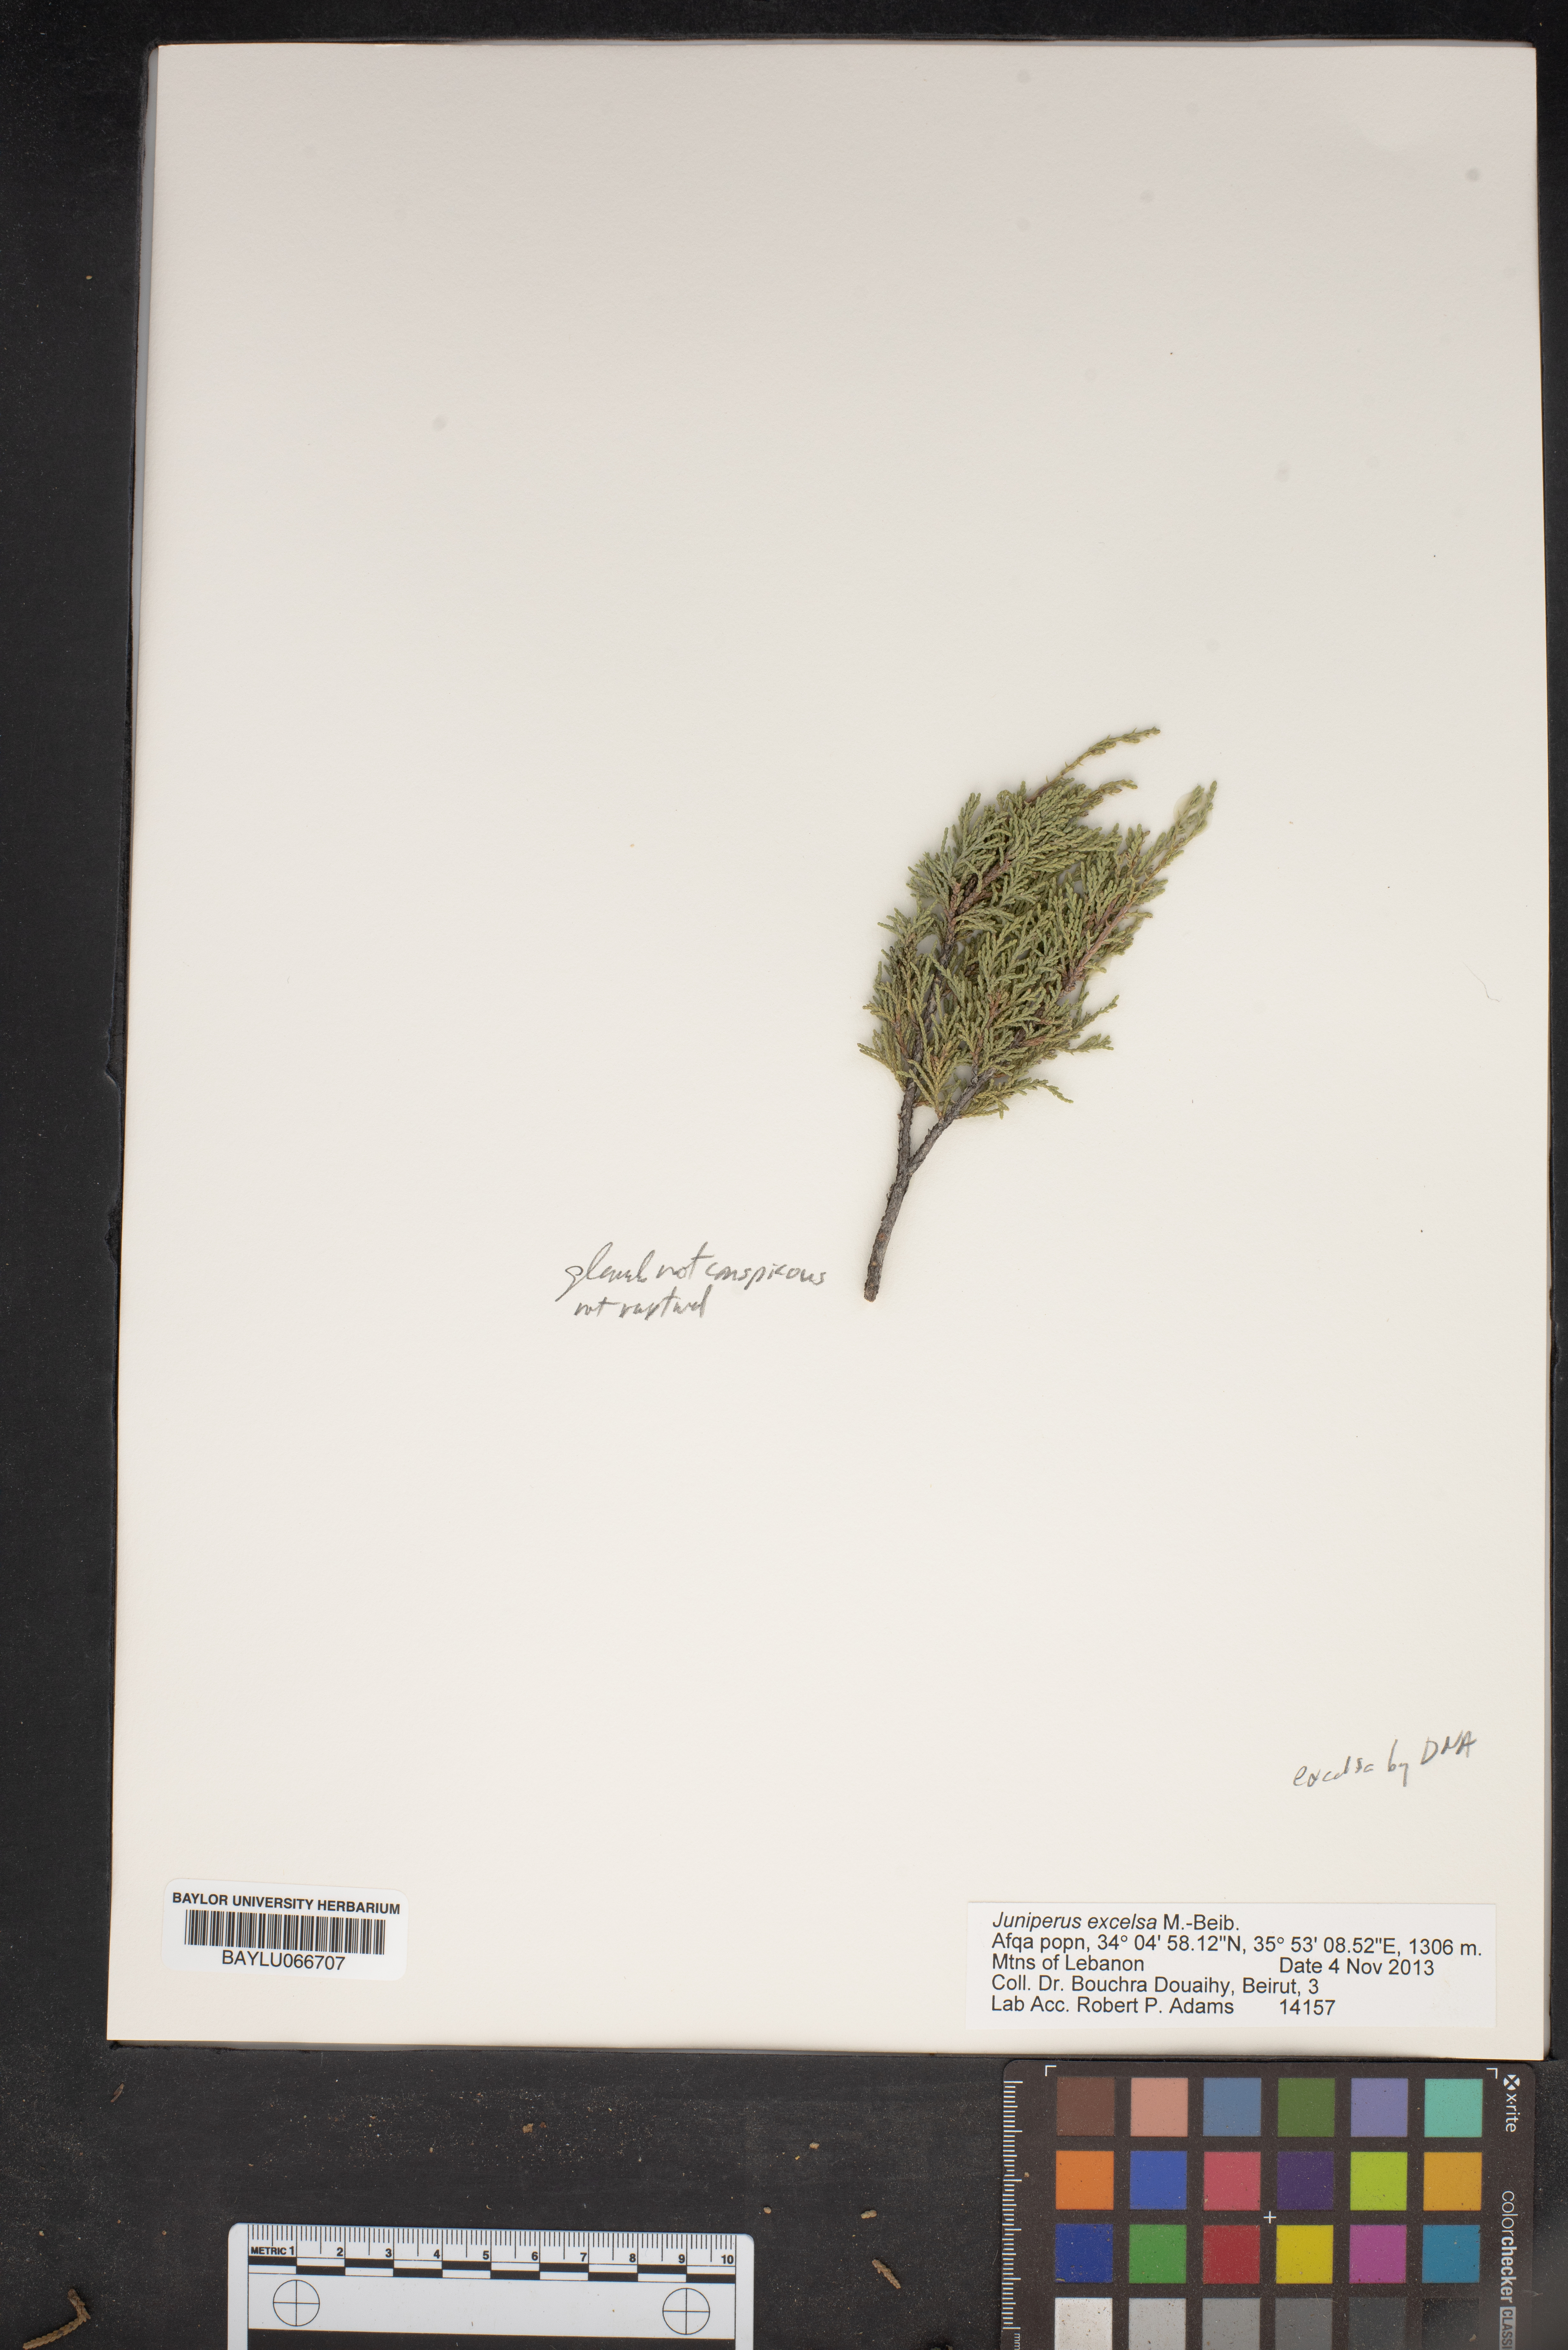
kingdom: Plantae
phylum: Tracheophyta
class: Pinopsida
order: Pinales
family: Cupressaceae
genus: Juniperus
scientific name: Juniperus excelsa
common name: Crimean juniper
